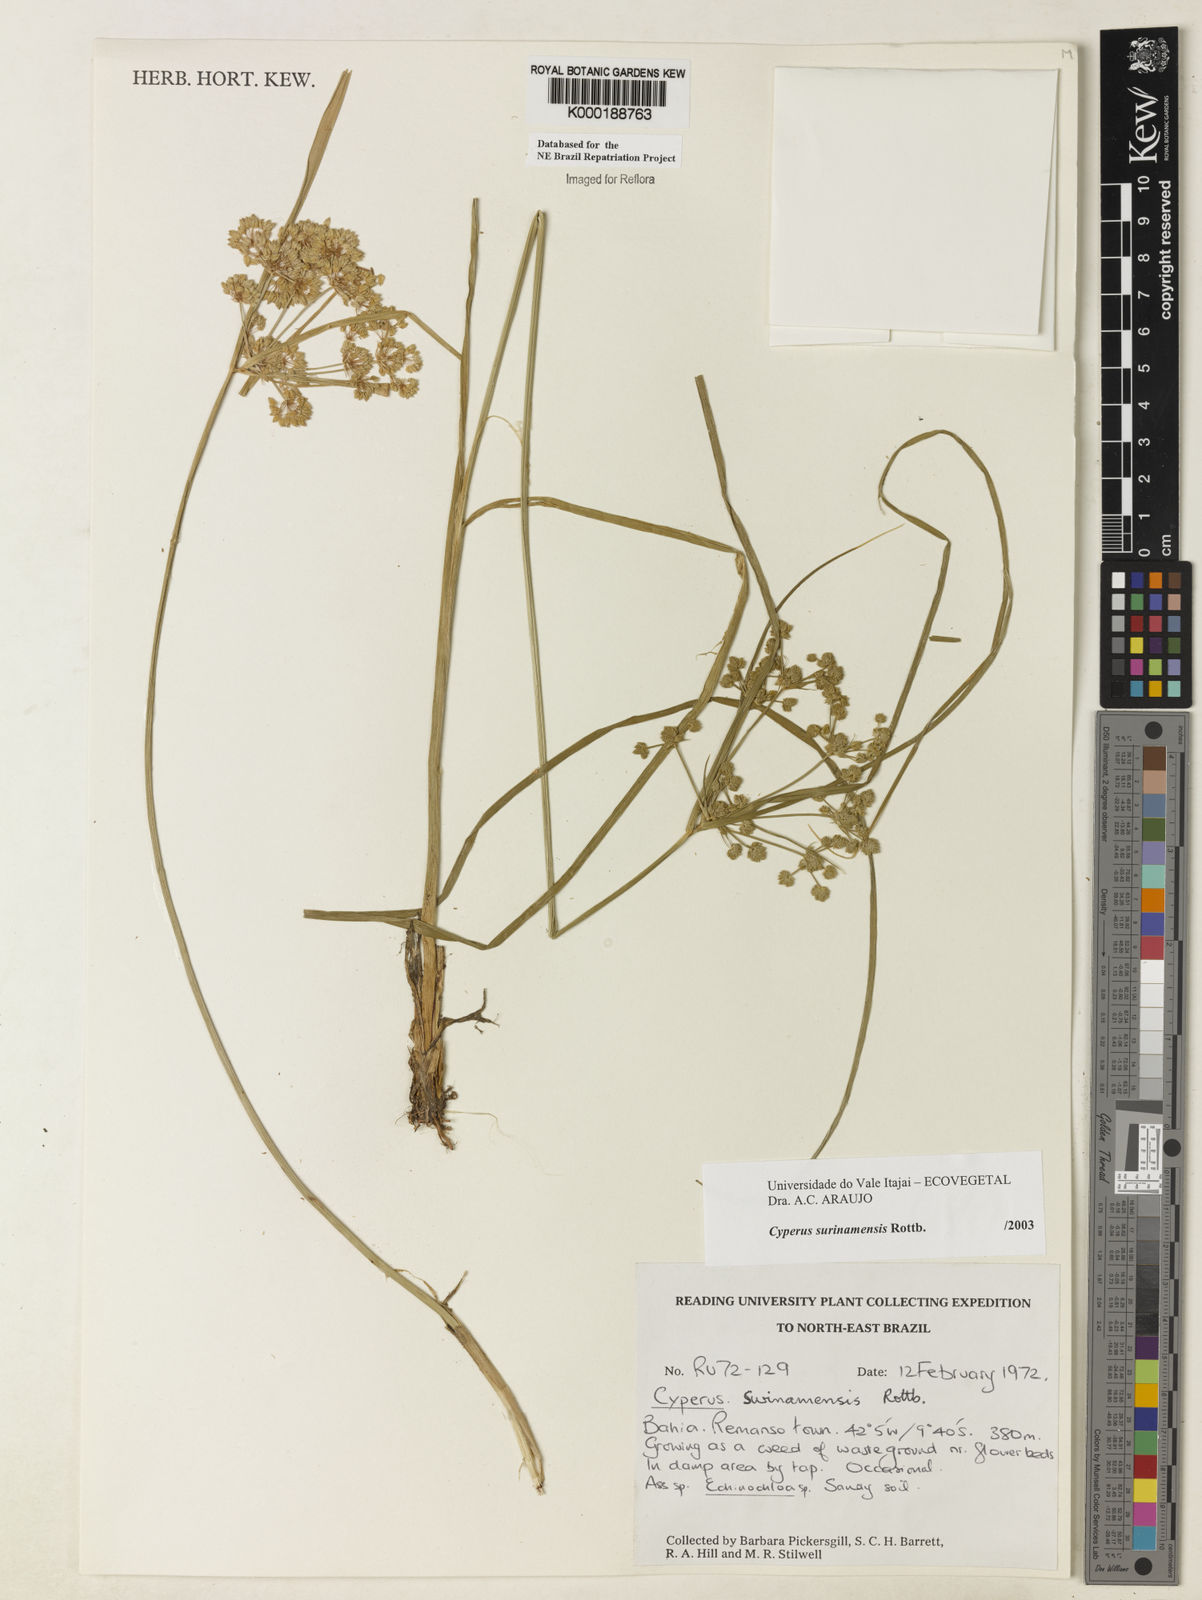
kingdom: Plantae
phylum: Tracheophyta
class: Liliopsida
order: Poales
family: Cyperaceae
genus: Cyperus
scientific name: Cyperus surinamensis
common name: Tropical flat sedge
